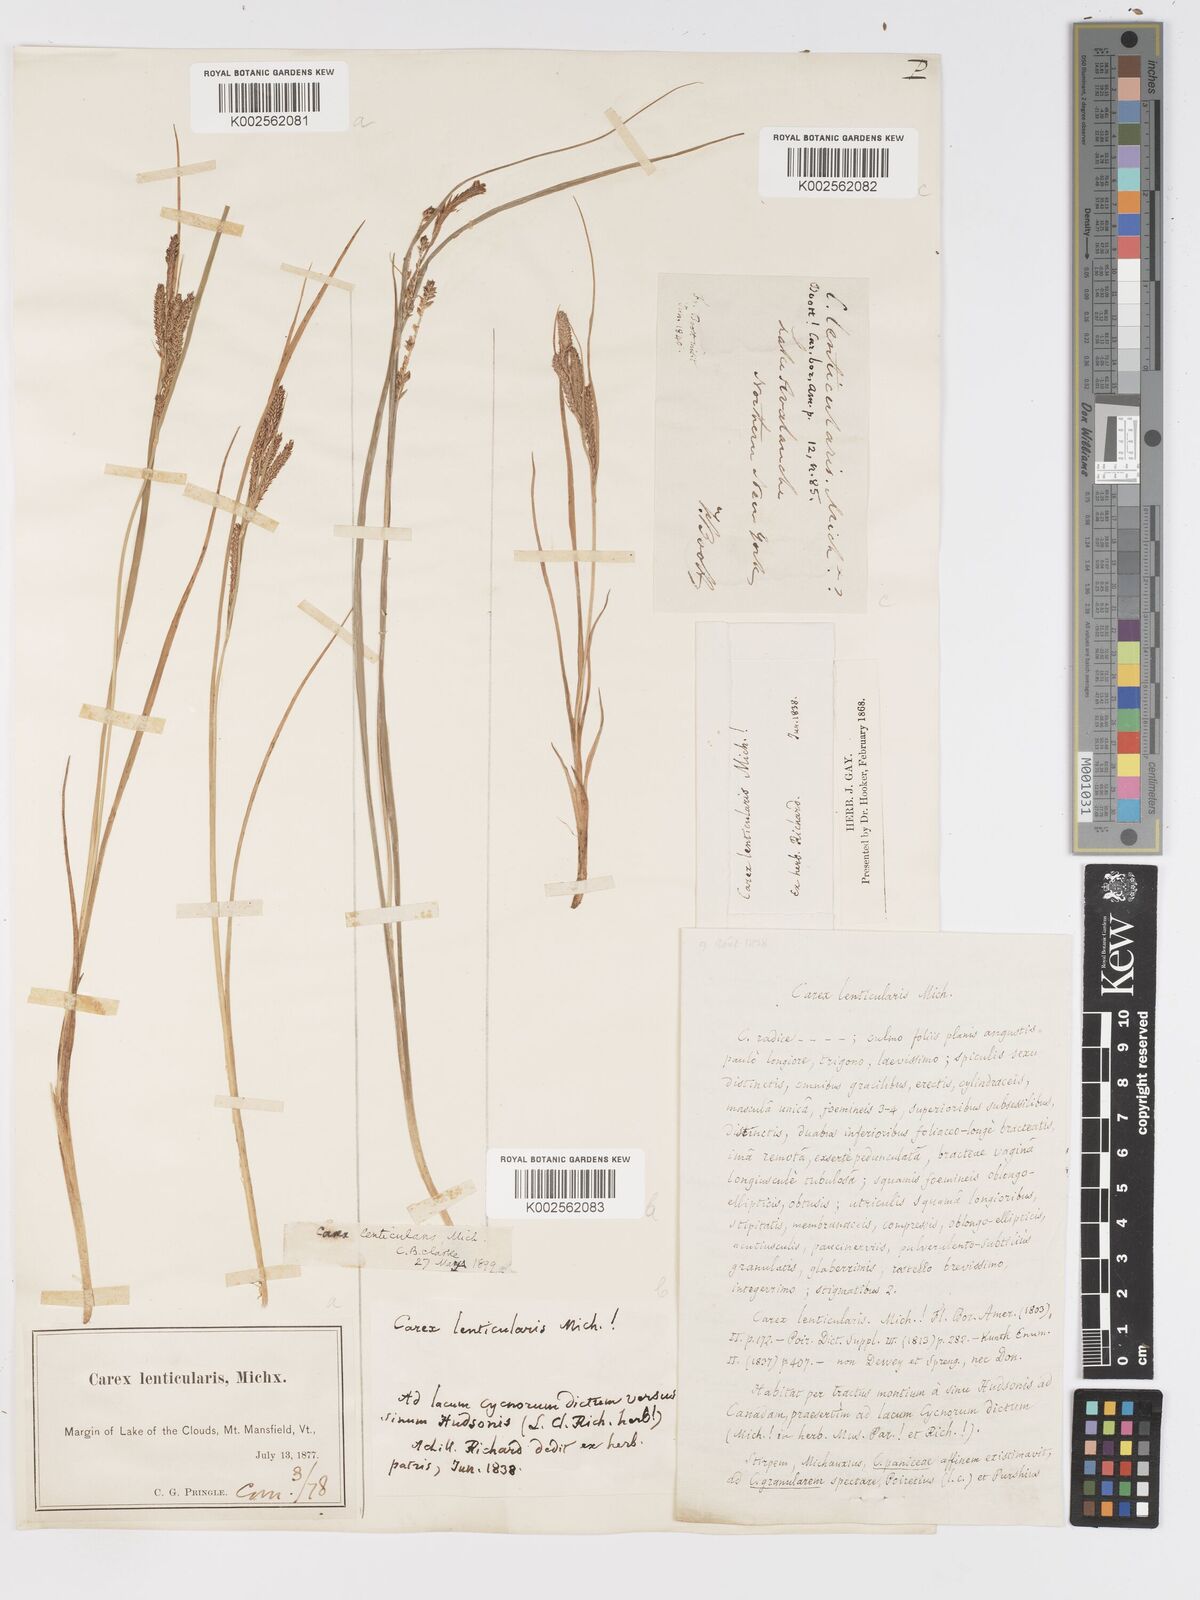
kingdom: Plantae
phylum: Tracheophyta
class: Liliopsida
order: Poales
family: Cyperaceae
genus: Carex
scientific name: Carex lenticularis
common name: Lakeshore sedge
